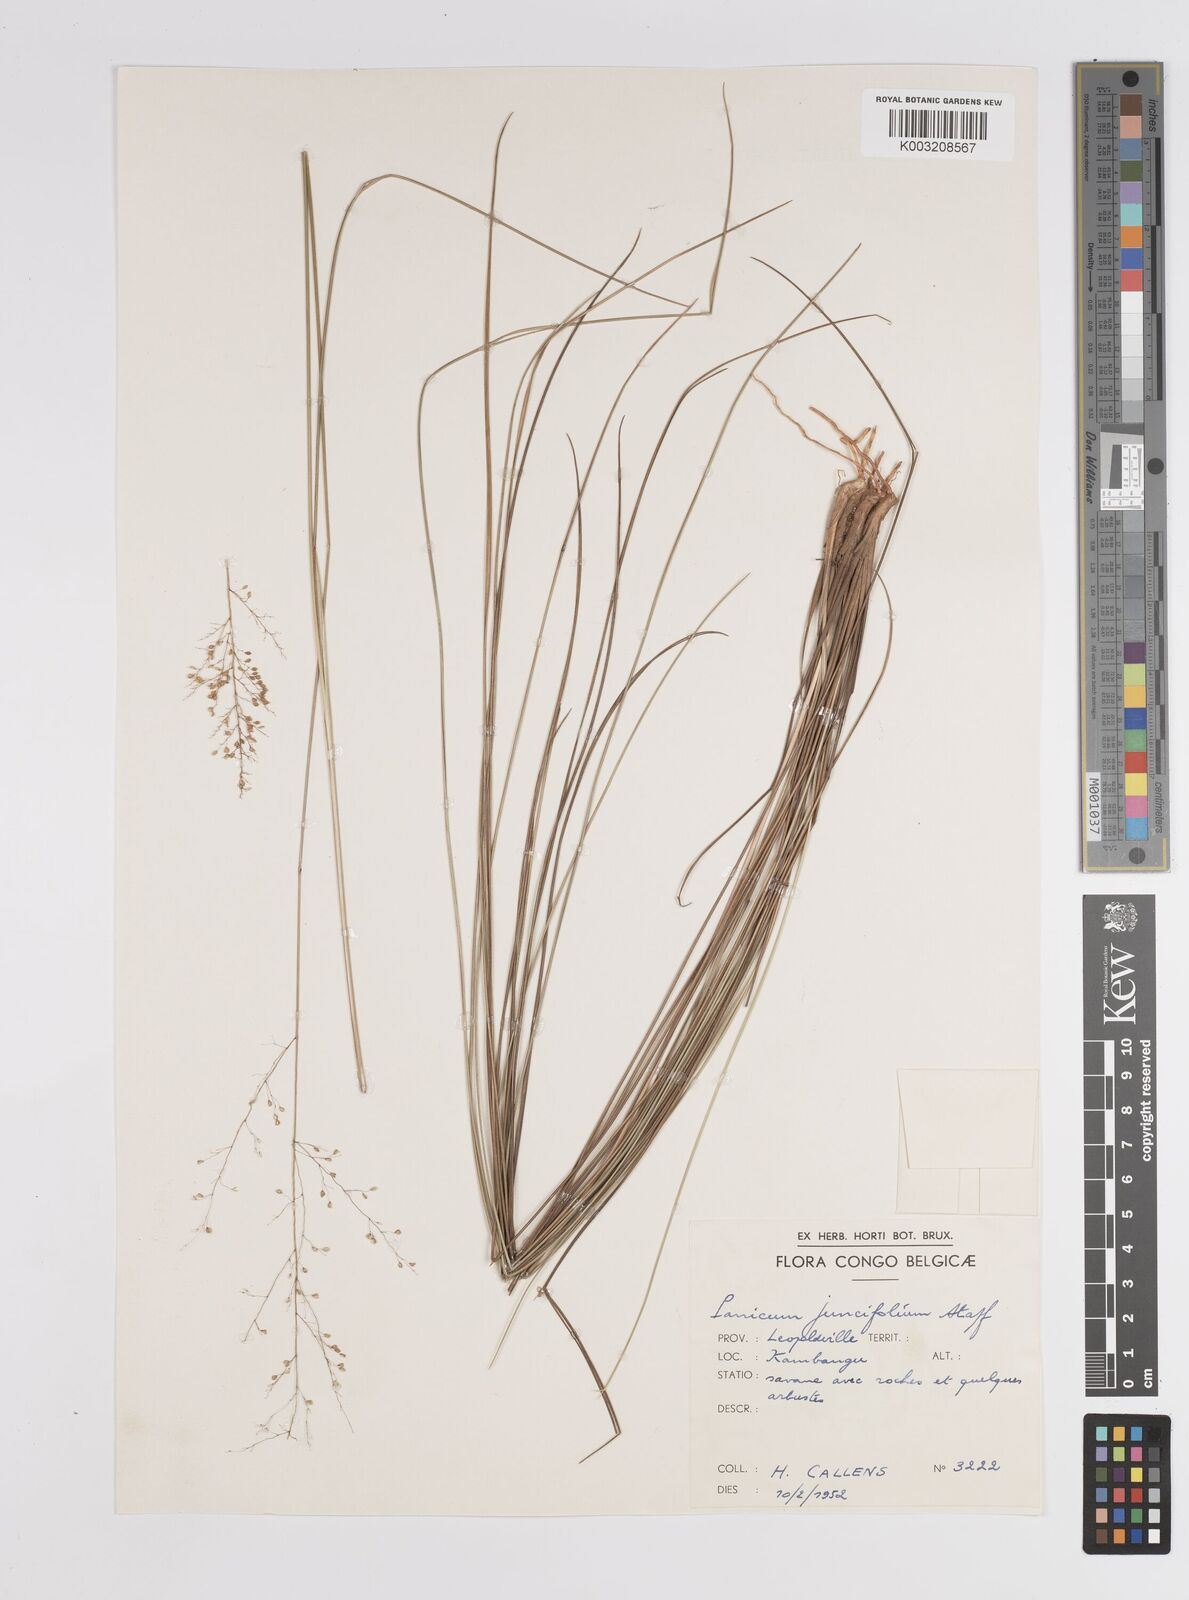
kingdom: Plantae
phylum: Tracheophyta
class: Liliopsida
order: Poales
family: Poaceae
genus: Trichanthecium
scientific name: Trichanthecium natalense
